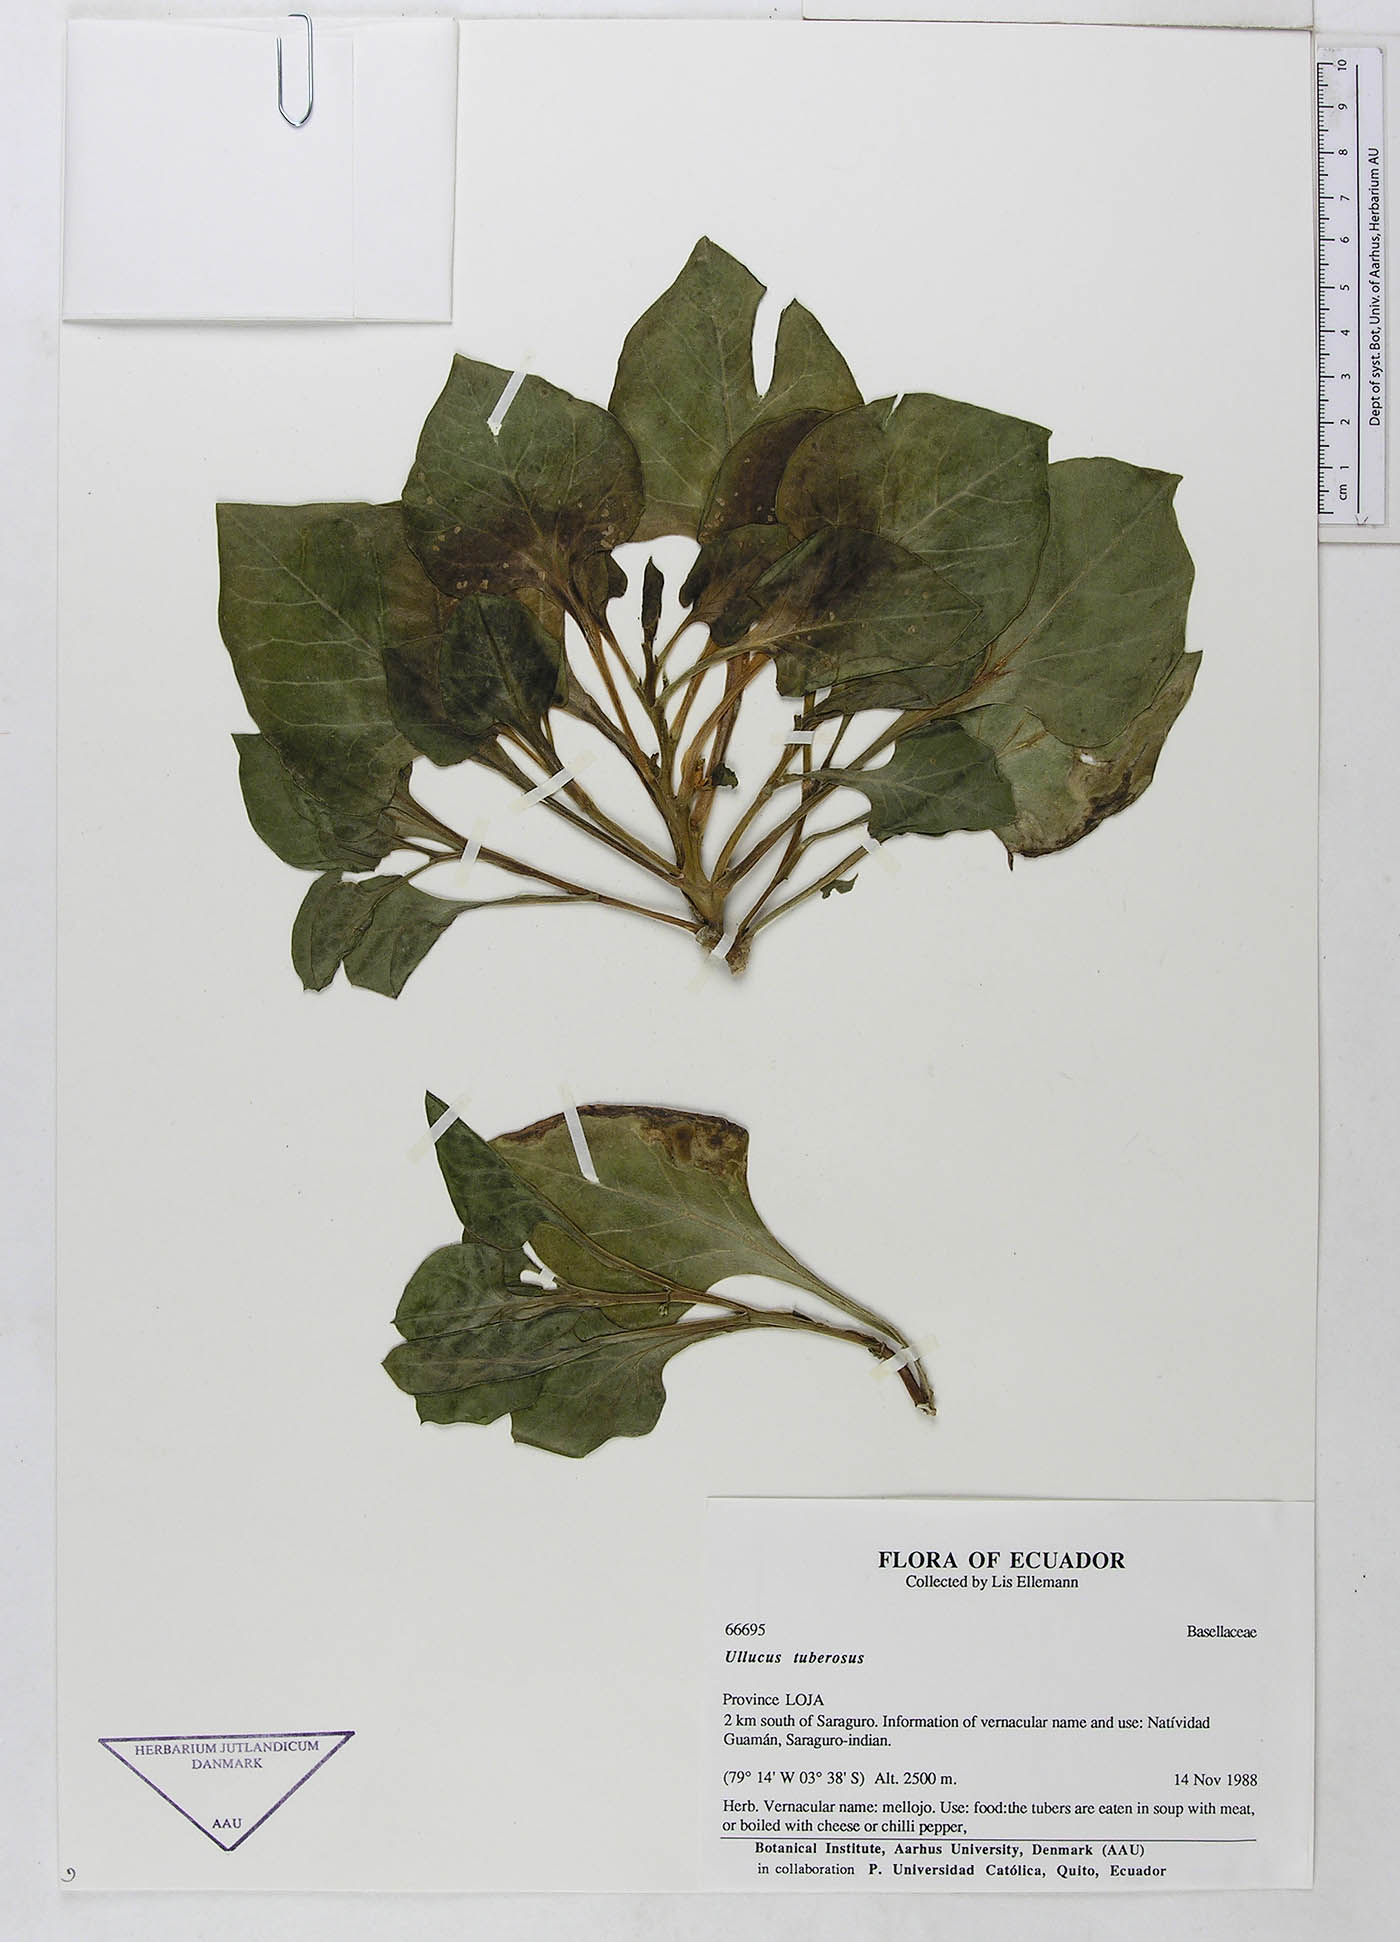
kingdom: Plantae
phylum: Tracheophyta
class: Magnoliopsida
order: Caryophyllales
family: Basellaceae
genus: Ullucus
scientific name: Ullucus tuberosus
